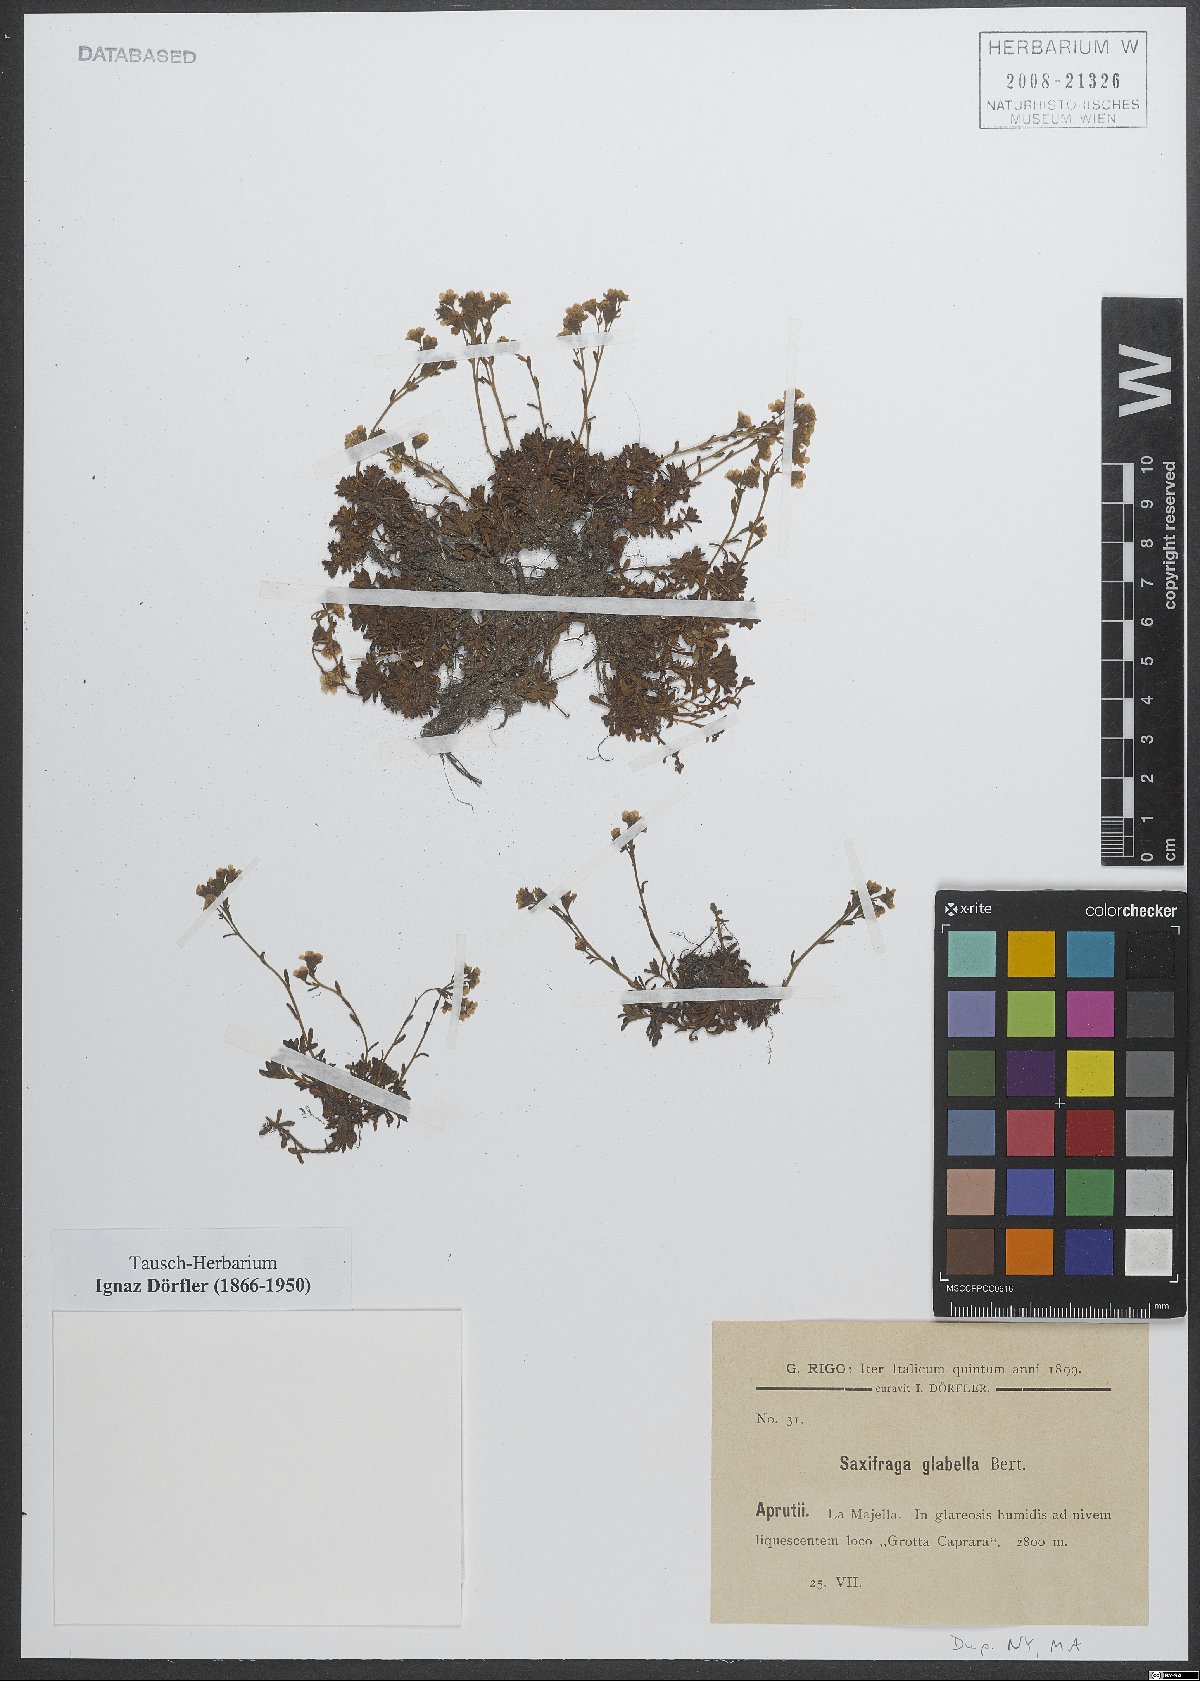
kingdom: Plantae
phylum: Tracheophyta
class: Magnoliopsida
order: Saxifragales
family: Saxifragaceae
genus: Saxifraga
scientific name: Saxifraga glabella
